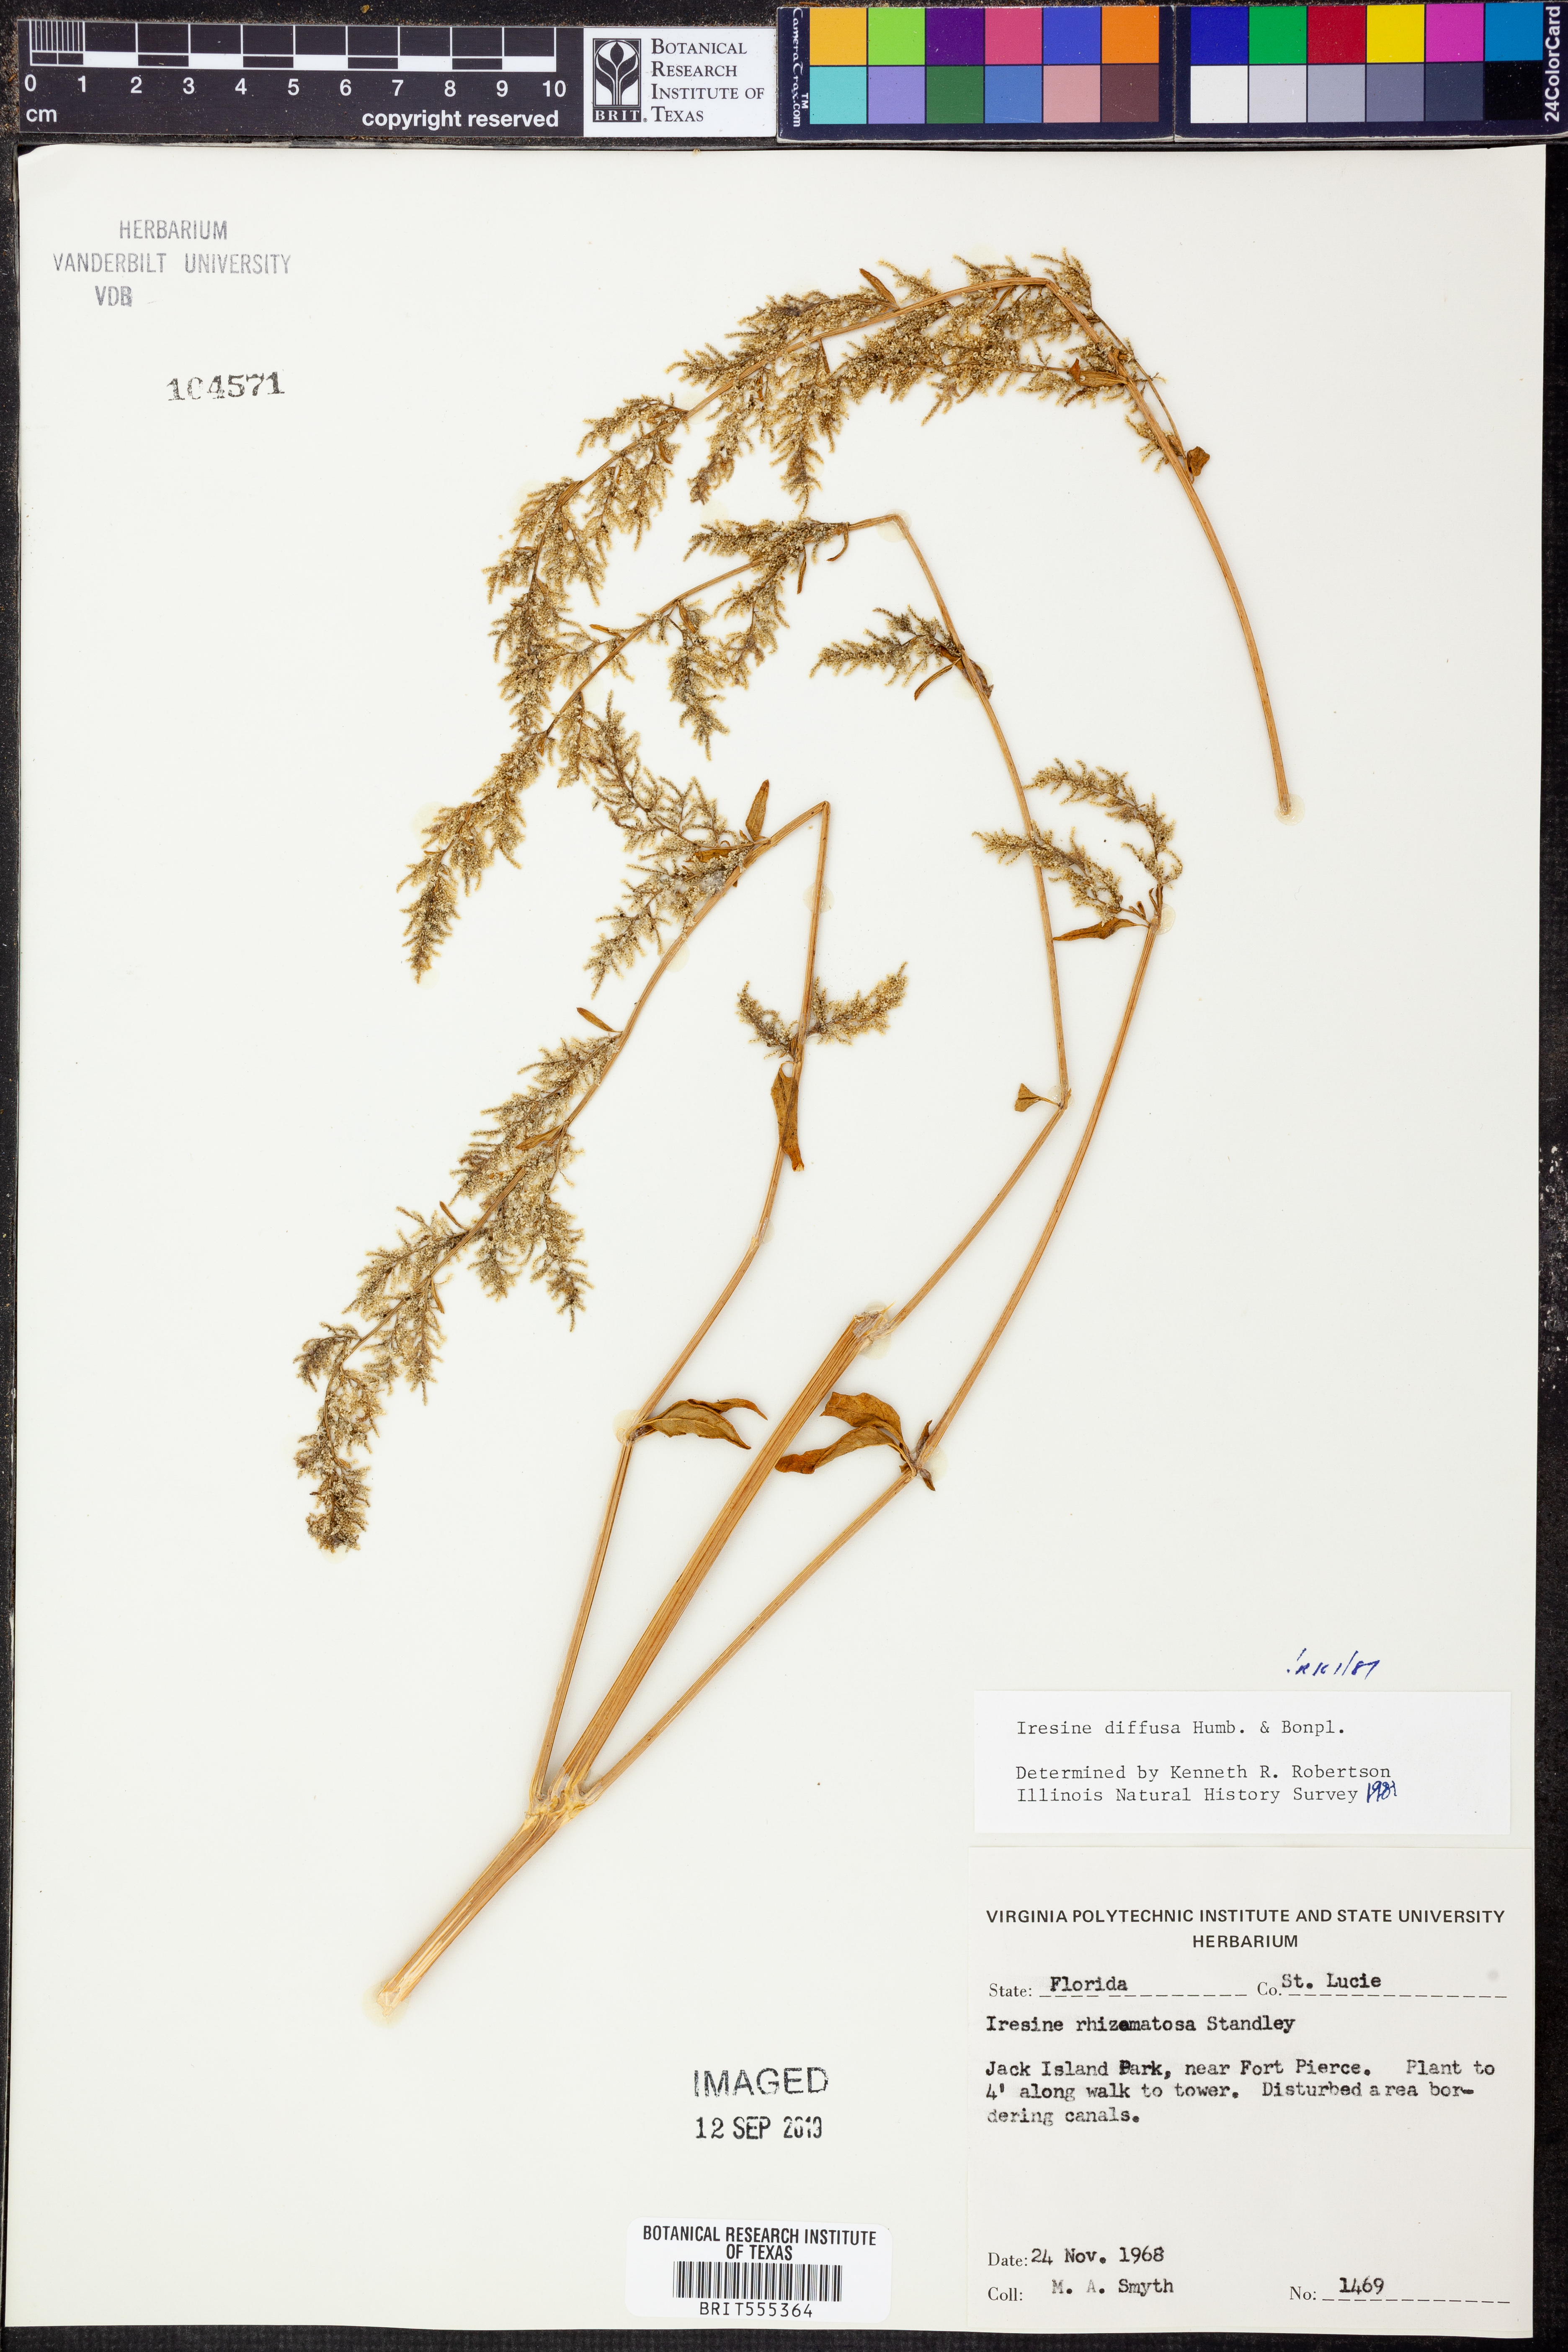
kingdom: Plantae
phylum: Tracheophyta
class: Magnoliopsida
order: Caryophyllales
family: Amaranthaceae
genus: Iresine
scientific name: Iresine diffusa
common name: Juba's-bush
